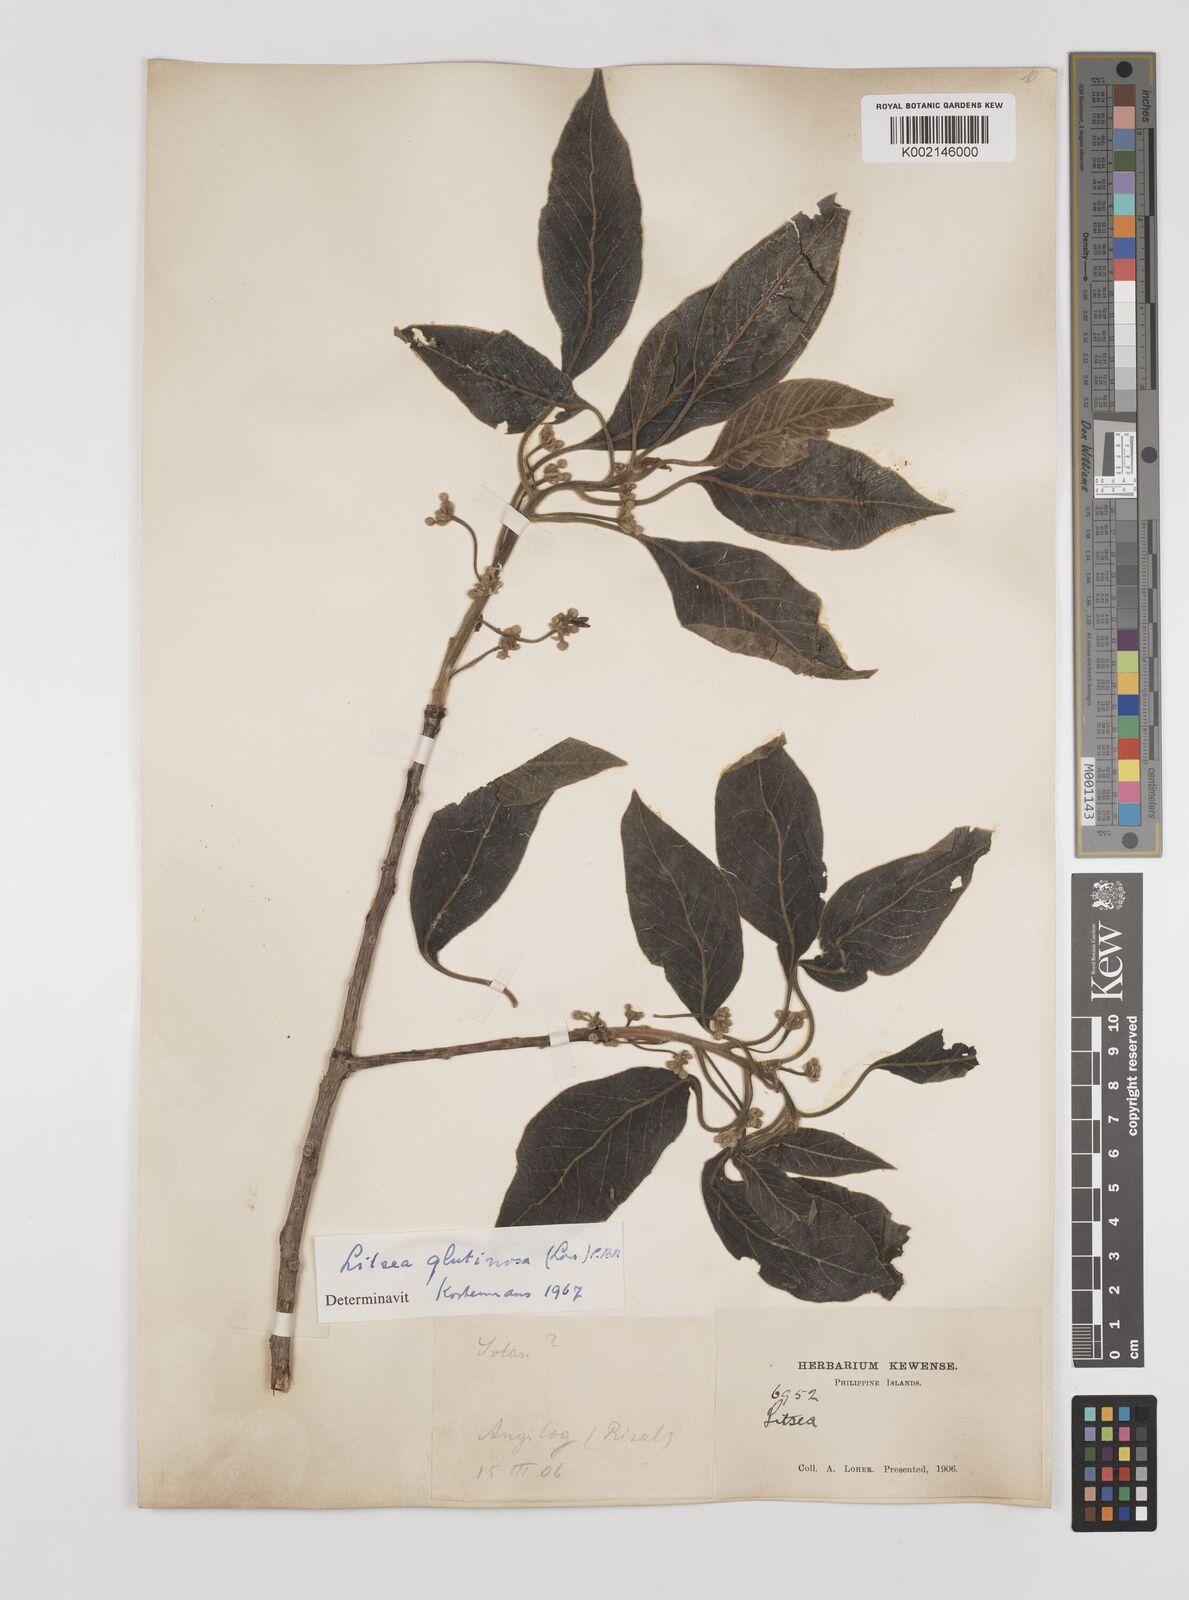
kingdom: Plantae
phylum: Tracheophyta
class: Magnoliopsida
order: Laurales
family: Lauraceae
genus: Litsea
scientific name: Litsea
